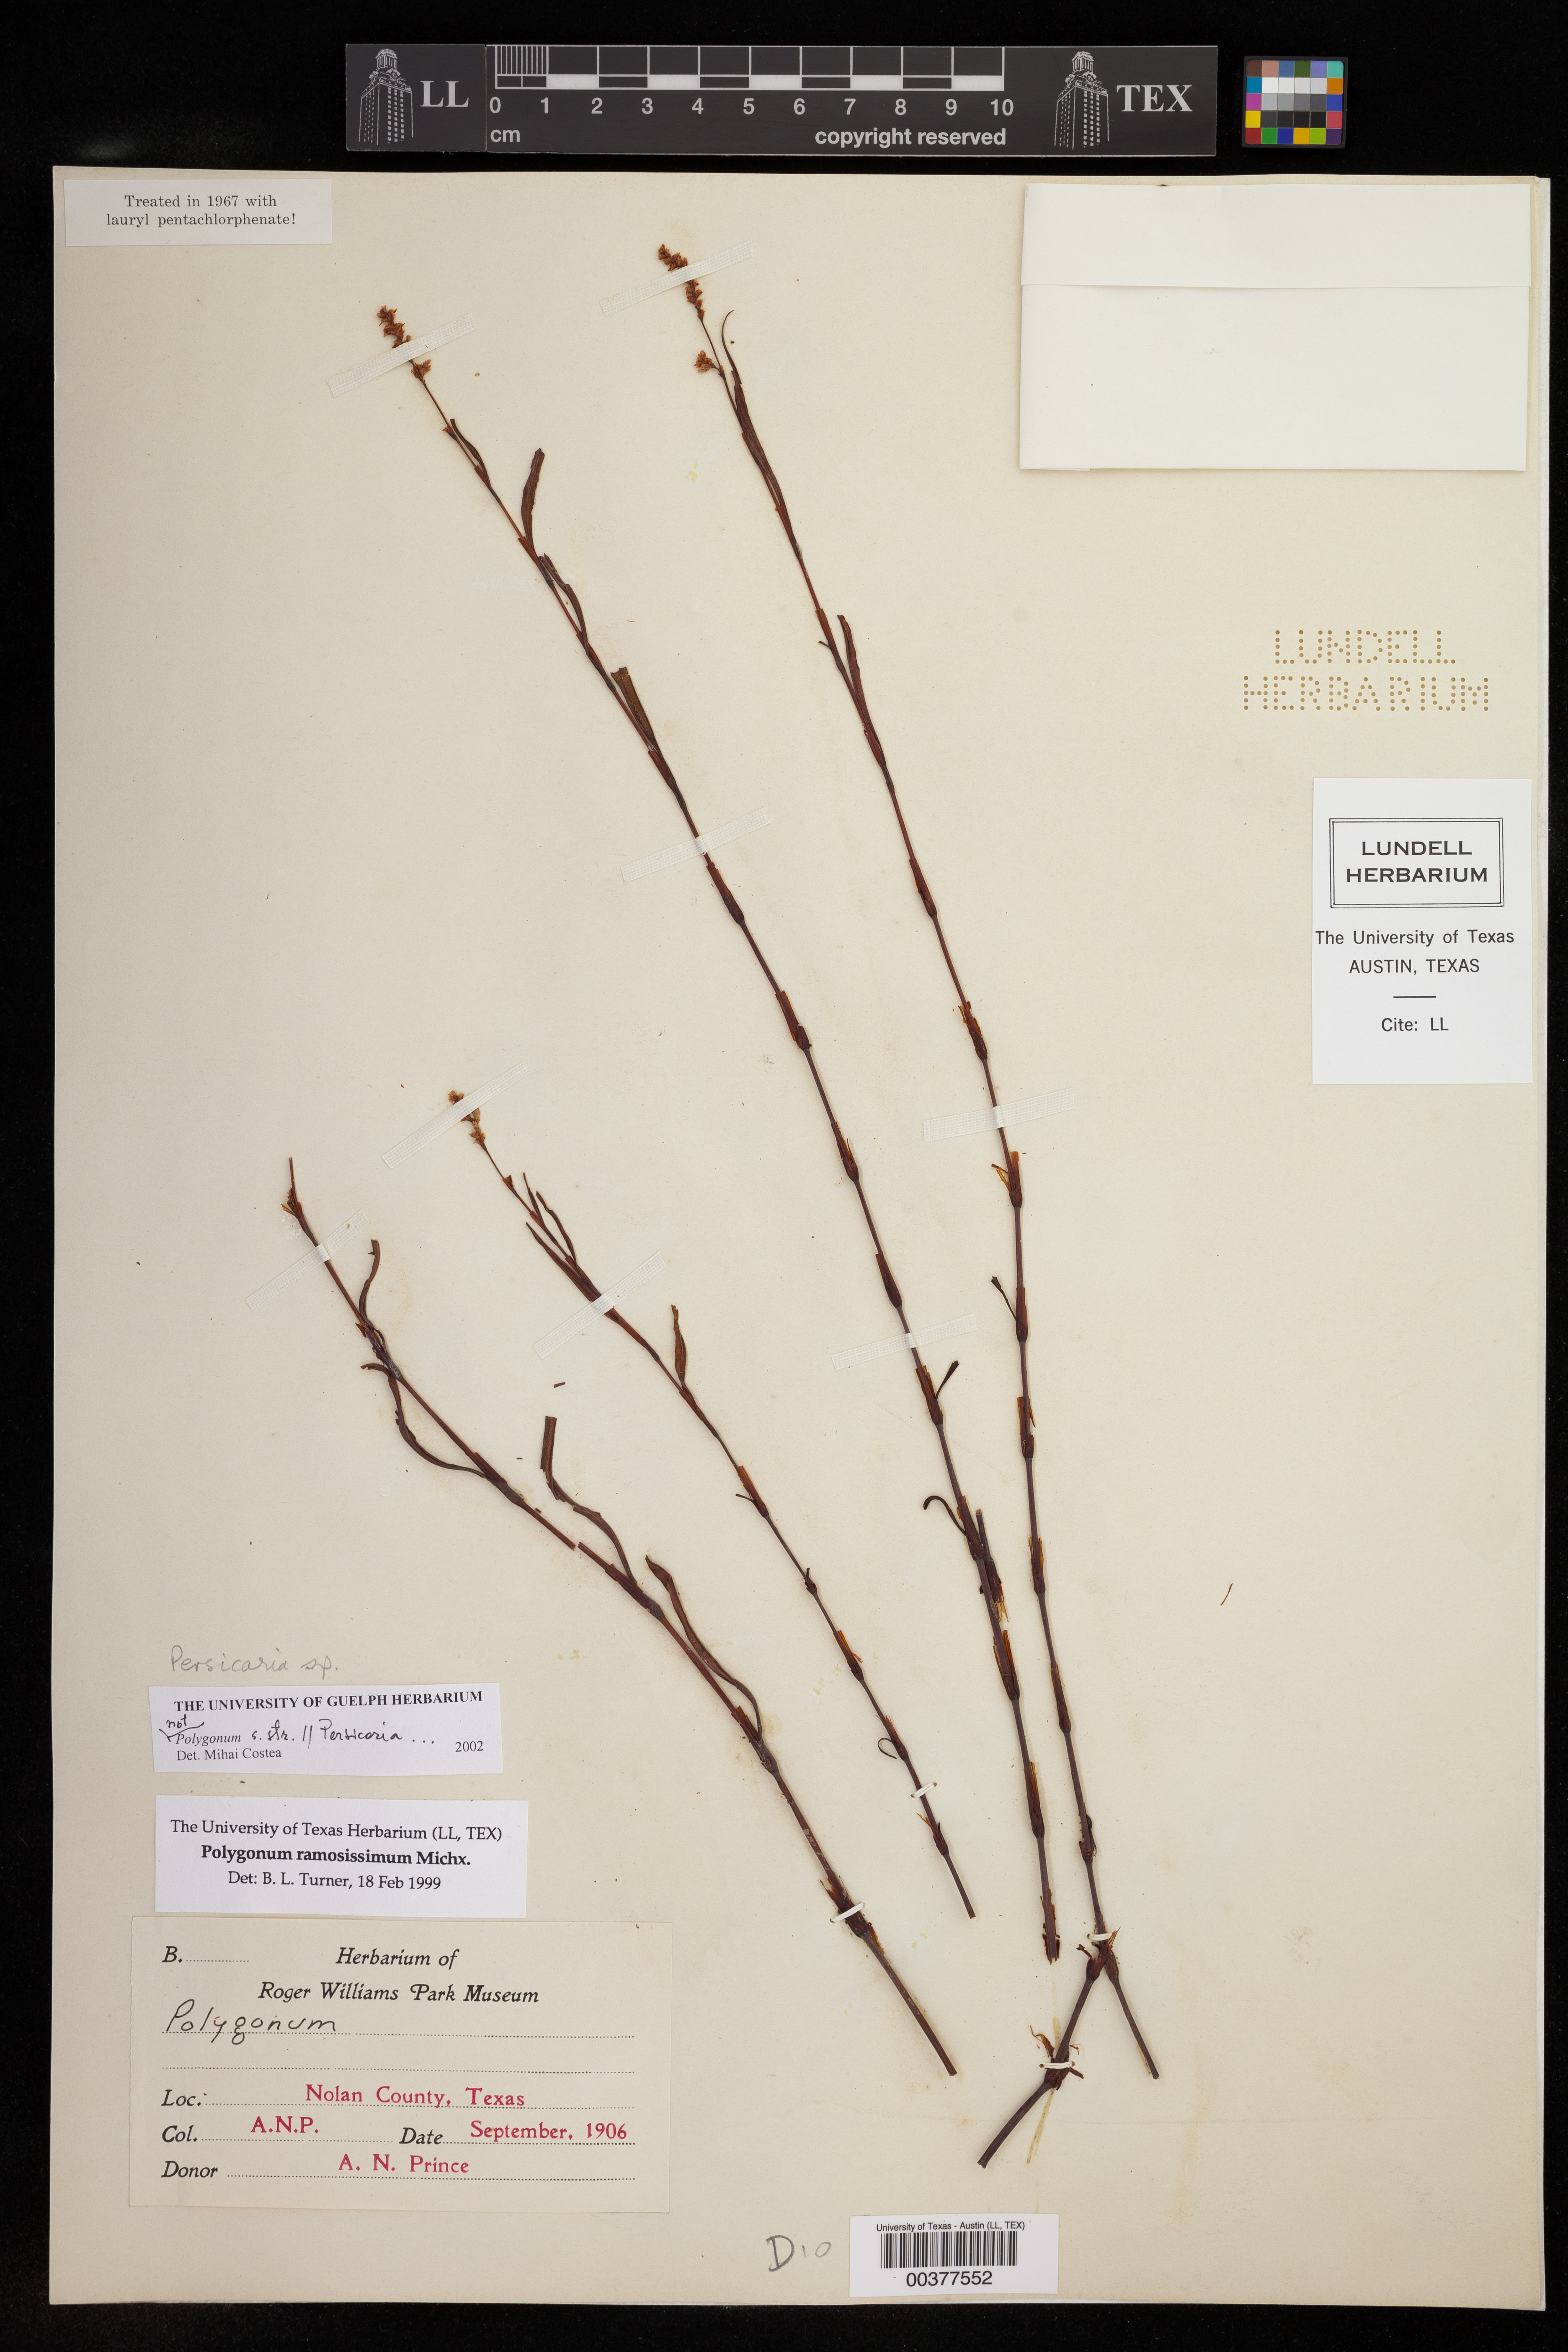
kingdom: Plantae
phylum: Tracheophyta
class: Magnoliopsida
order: Caryophyllales
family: Polygonaceae
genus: Persicaria
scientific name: Persicaria
